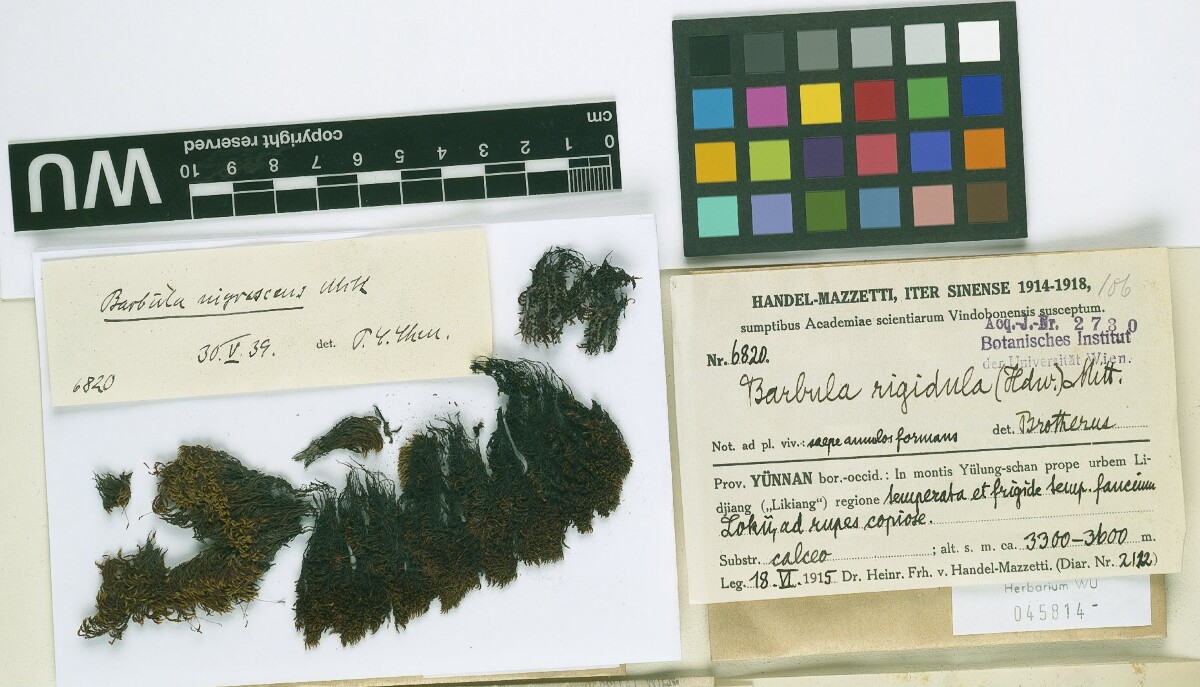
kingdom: Plantae
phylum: Bryophyta
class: Bryopsida
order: Pottiales
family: Pottiaceae
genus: Didymodon
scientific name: Didymodon nigrescens
